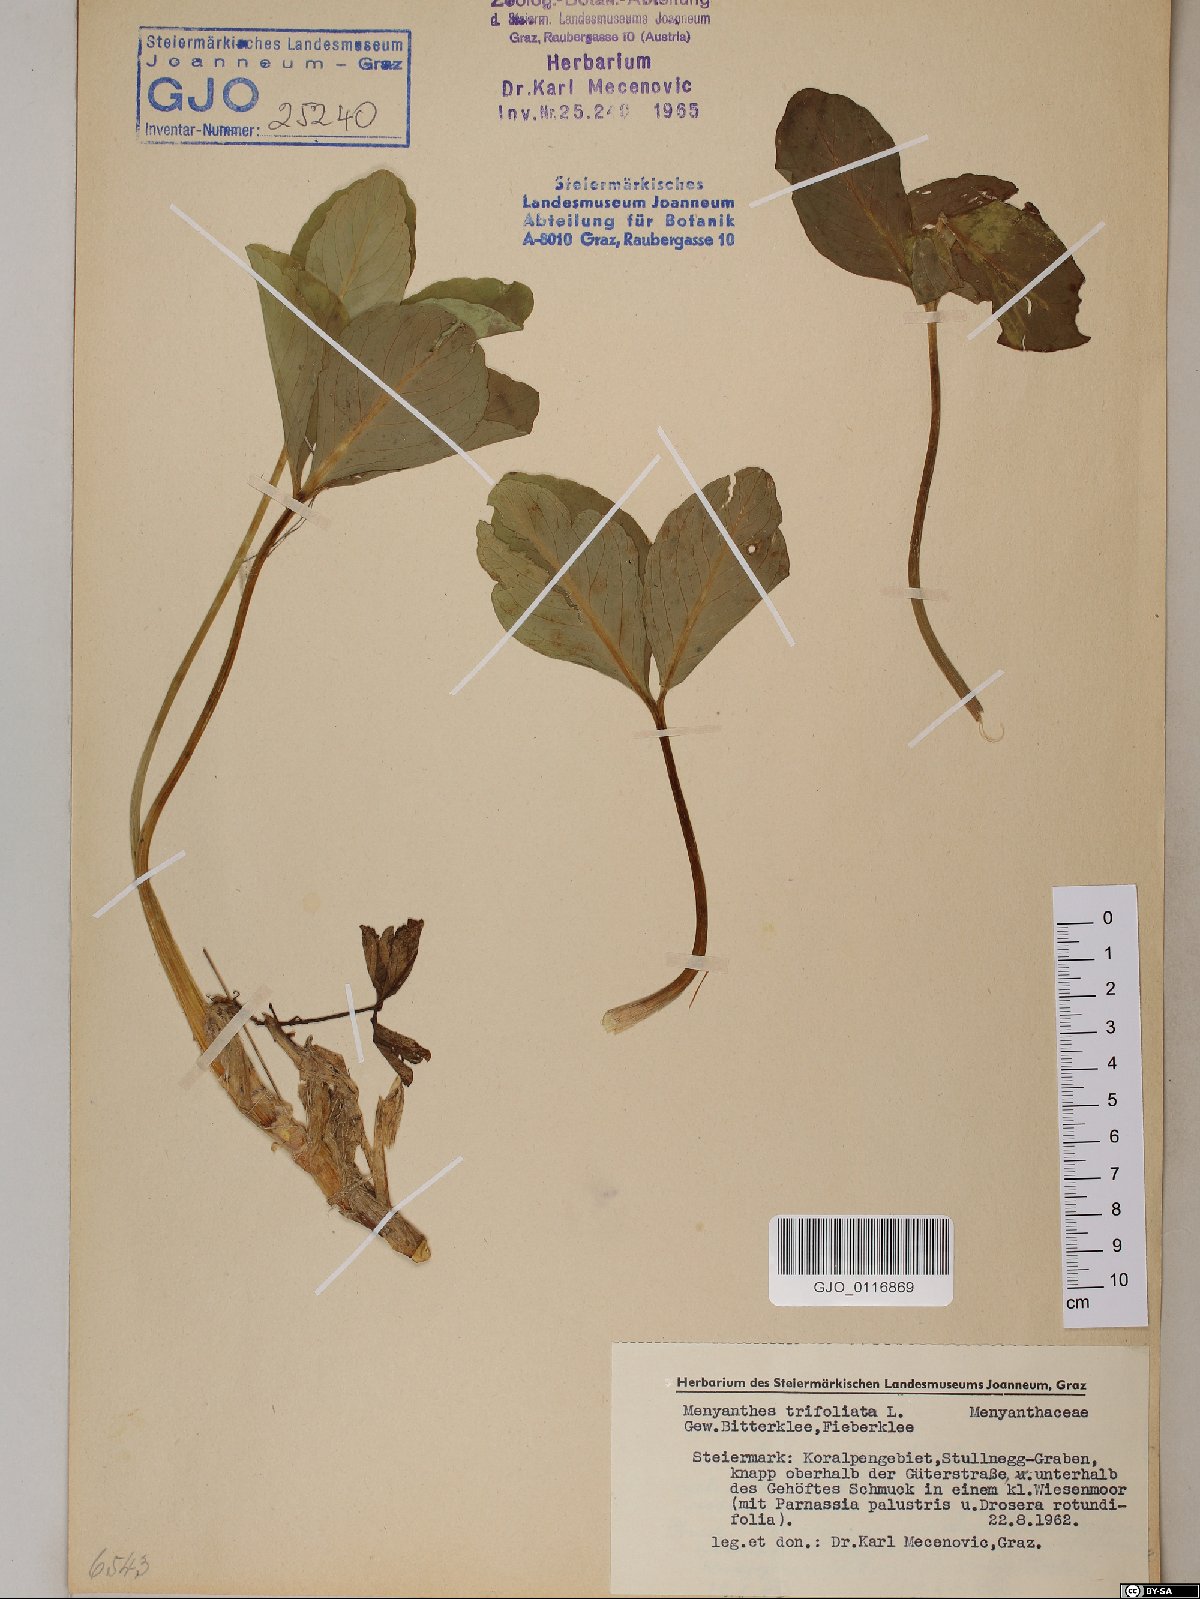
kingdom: Plantae
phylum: Tracheophyta
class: Magnoliopsida
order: Asterales
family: Menyanthaceae
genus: Menyanthes
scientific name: Menyanthes trifoliata
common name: Bogbean
